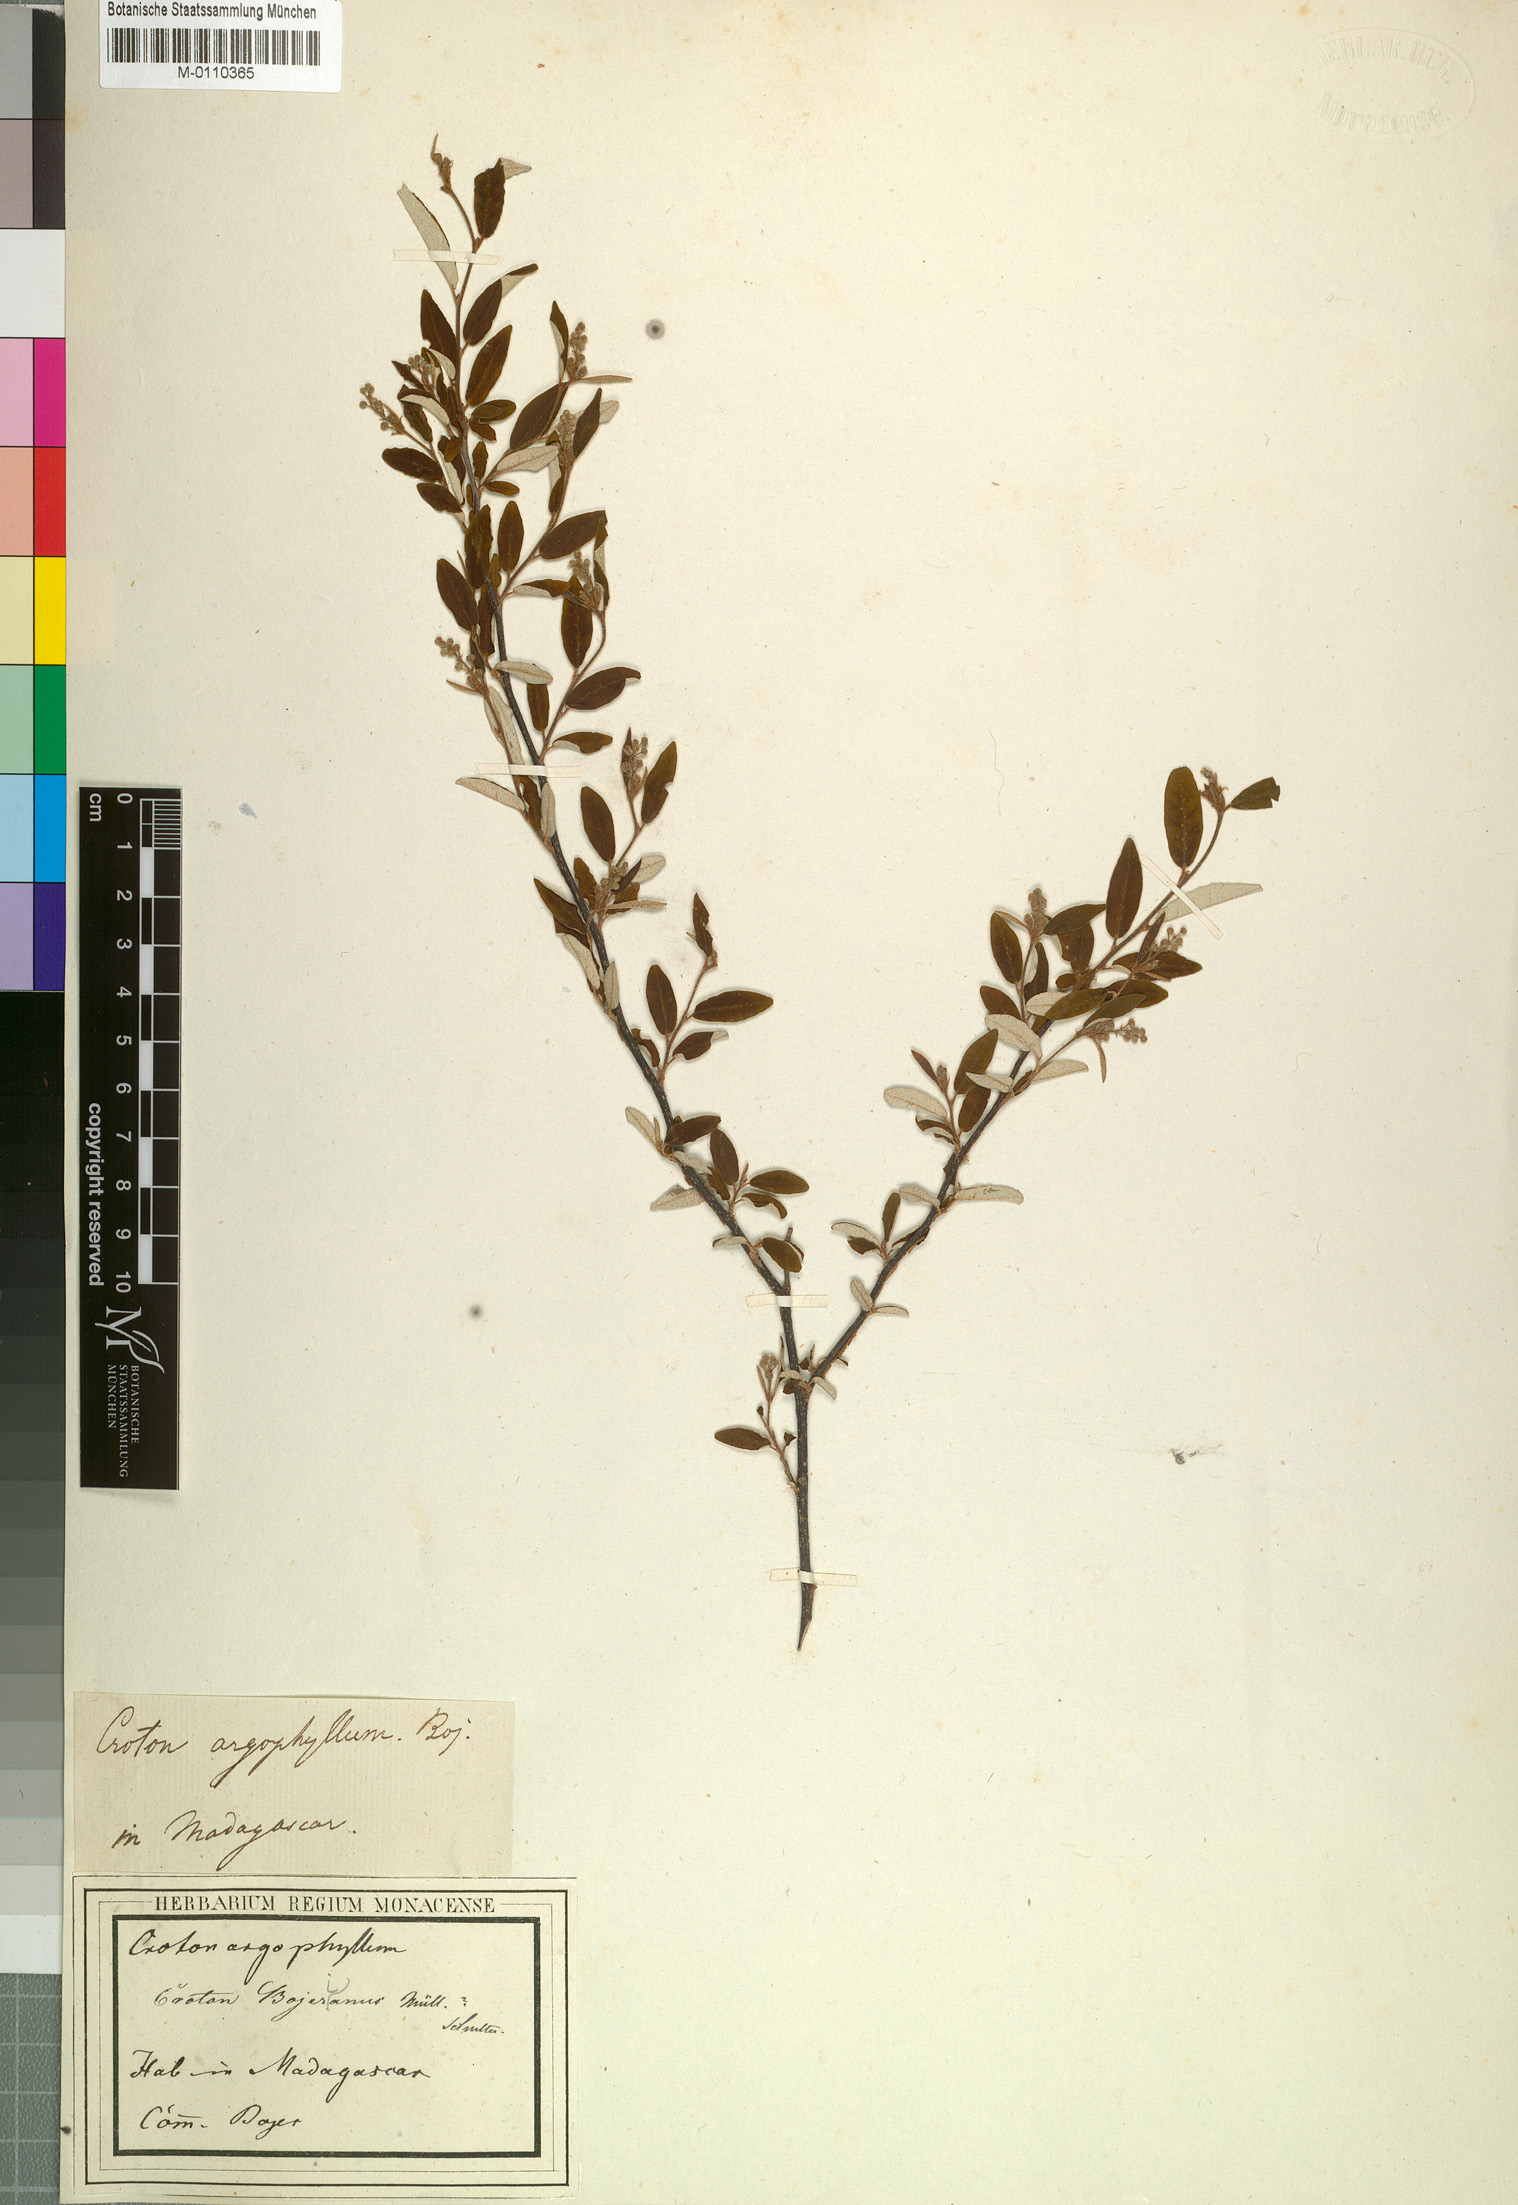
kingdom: Plantae
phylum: Tracheophyta
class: Magnoliopsida
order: Malpighiales
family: Euphorbiaceae
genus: Croton
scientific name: Croton bojerianus
